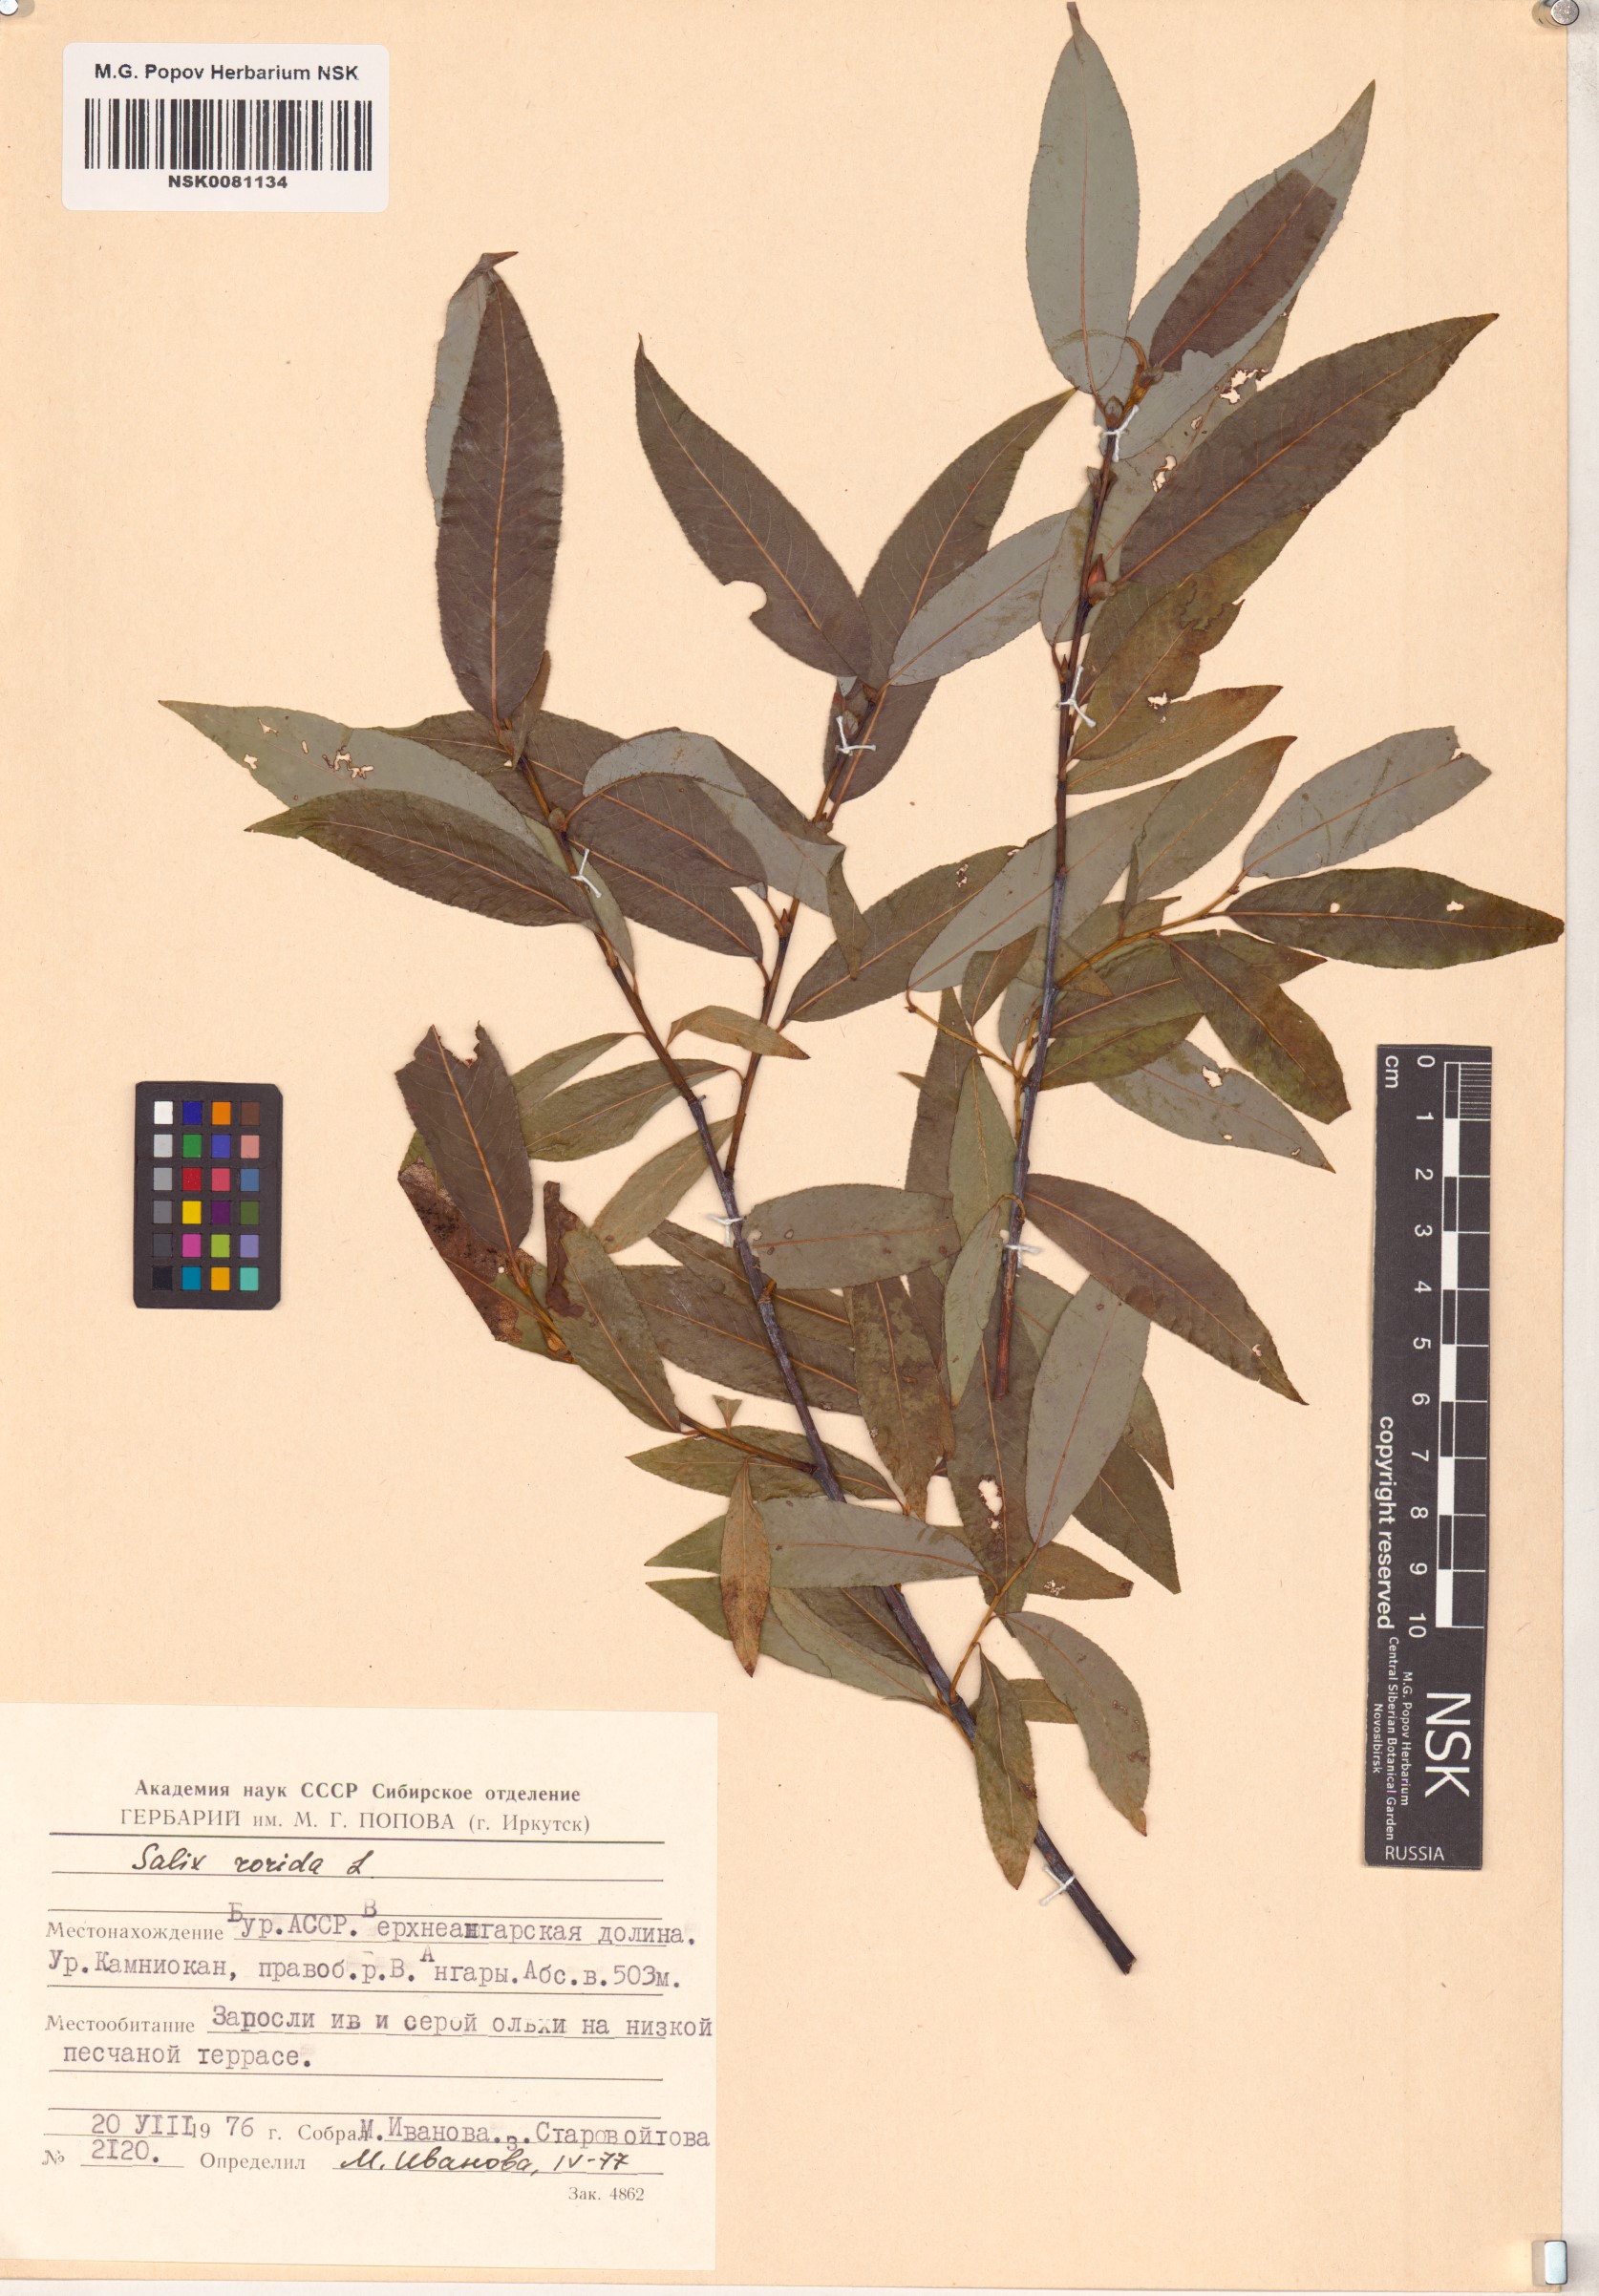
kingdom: Plantae
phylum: Tracheophyta
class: Magnoliopsida
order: Malpighiales
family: Salicaceae
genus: Salix
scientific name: Salix rorida
